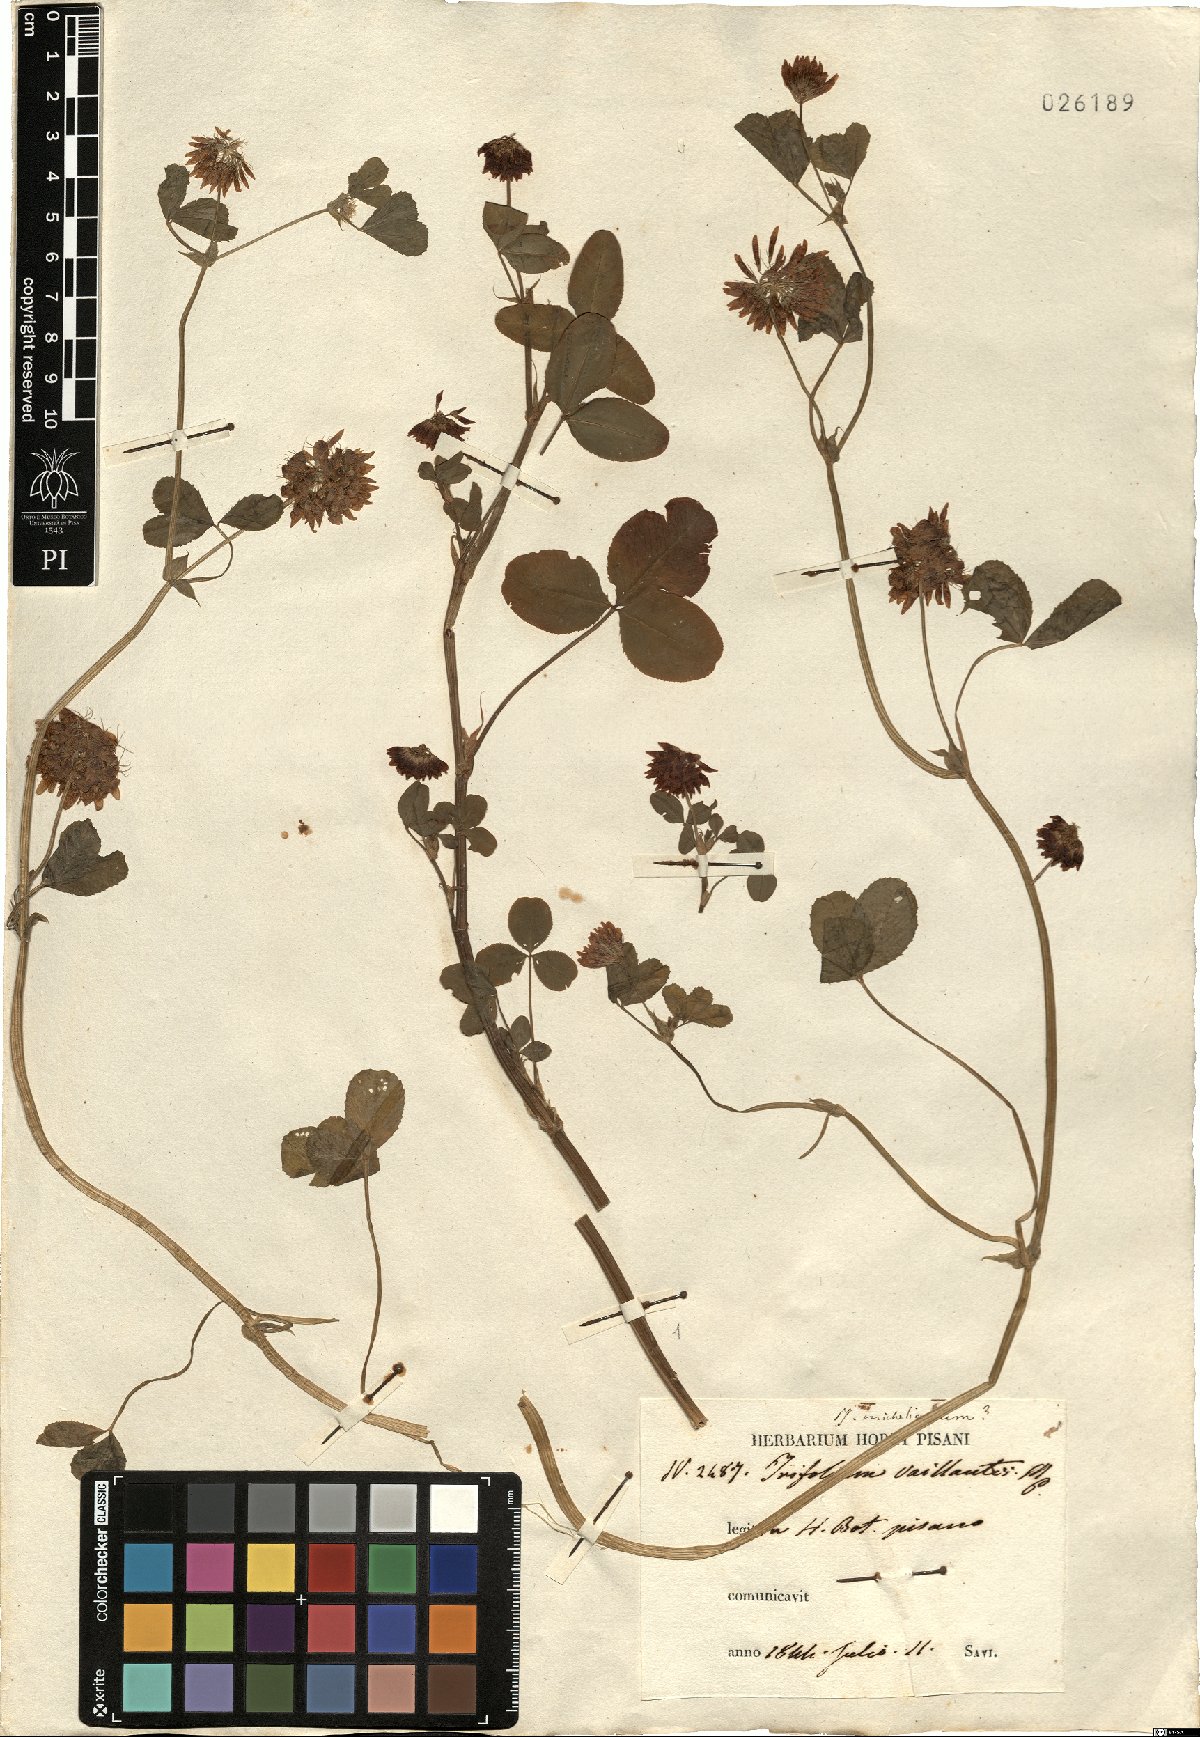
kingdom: Plantae
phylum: Tracheophyta
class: Magnoliopsida
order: Fabales
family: Fabaceae
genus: Trifolium
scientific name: Trifolium ambiguum
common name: Kura clover
